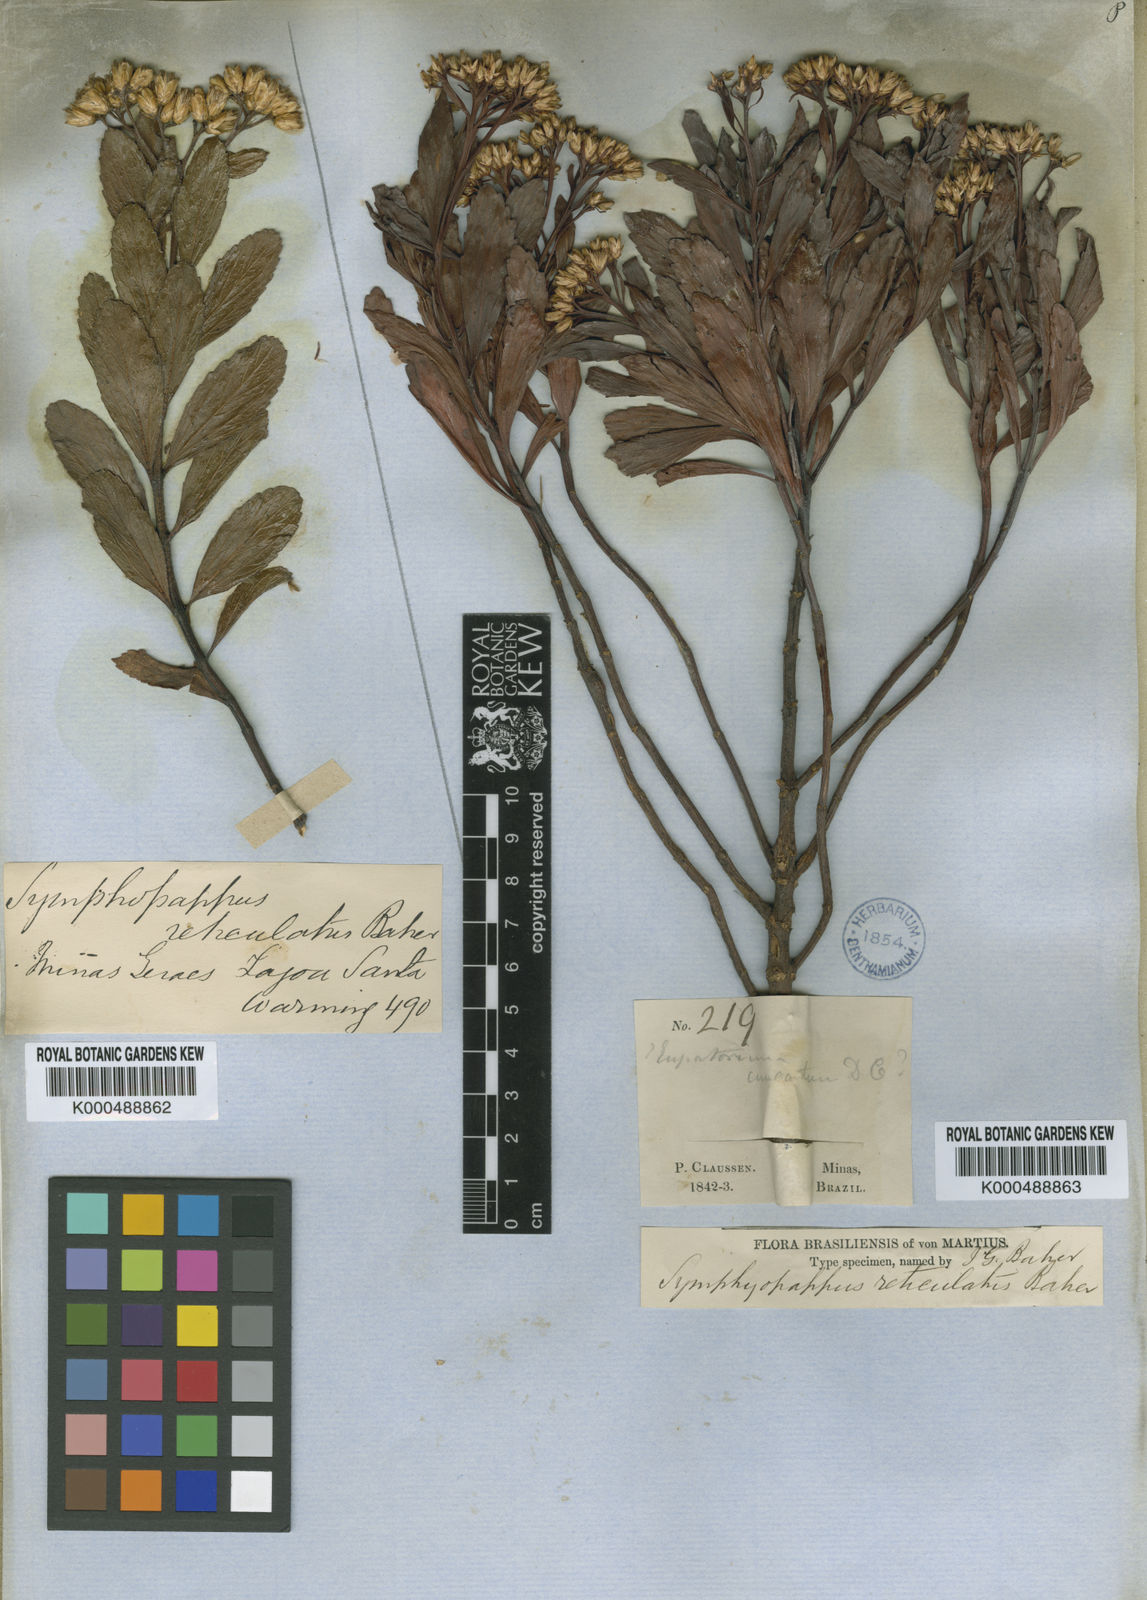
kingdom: Plantae
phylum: Tracheophyta
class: Magnoliopsida
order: Asterales
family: Asteraceae
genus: Symphyopappus
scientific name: Symphyopappus reticulatus
